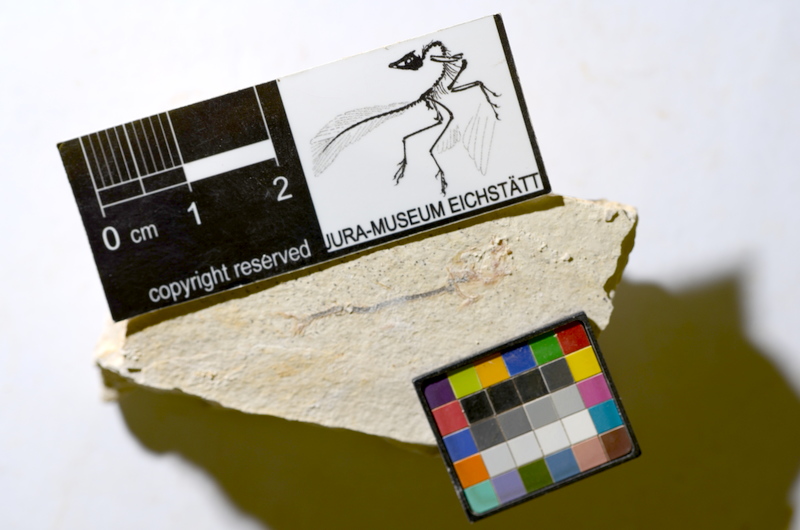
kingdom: Animalia
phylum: Chordata
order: Salmoniformes
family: Orthogonikleithridae
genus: Orthogonikleithrus
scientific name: Orthogonikleithrus hoelli
